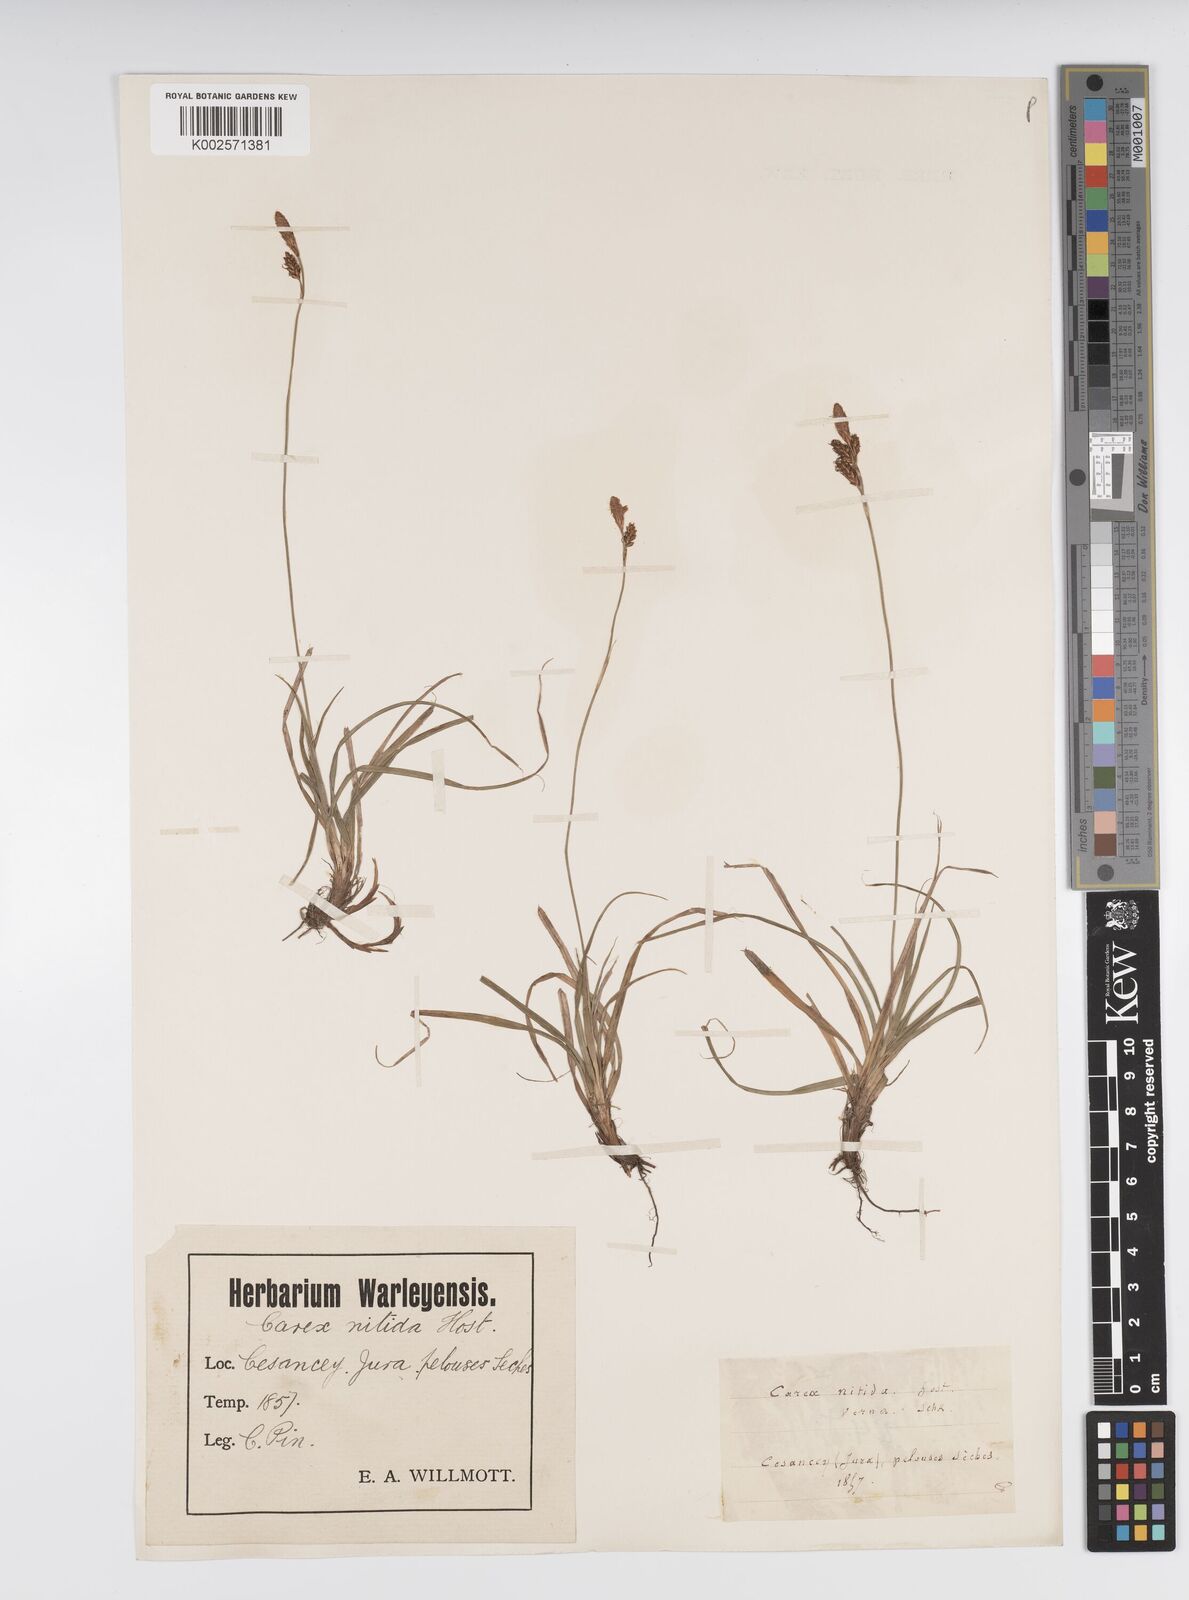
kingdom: Plantae
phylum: Tracheophyta
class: Liliopsida
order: Poales
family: Cyperaceae
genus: Carex
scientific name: Carex liparocarpos
